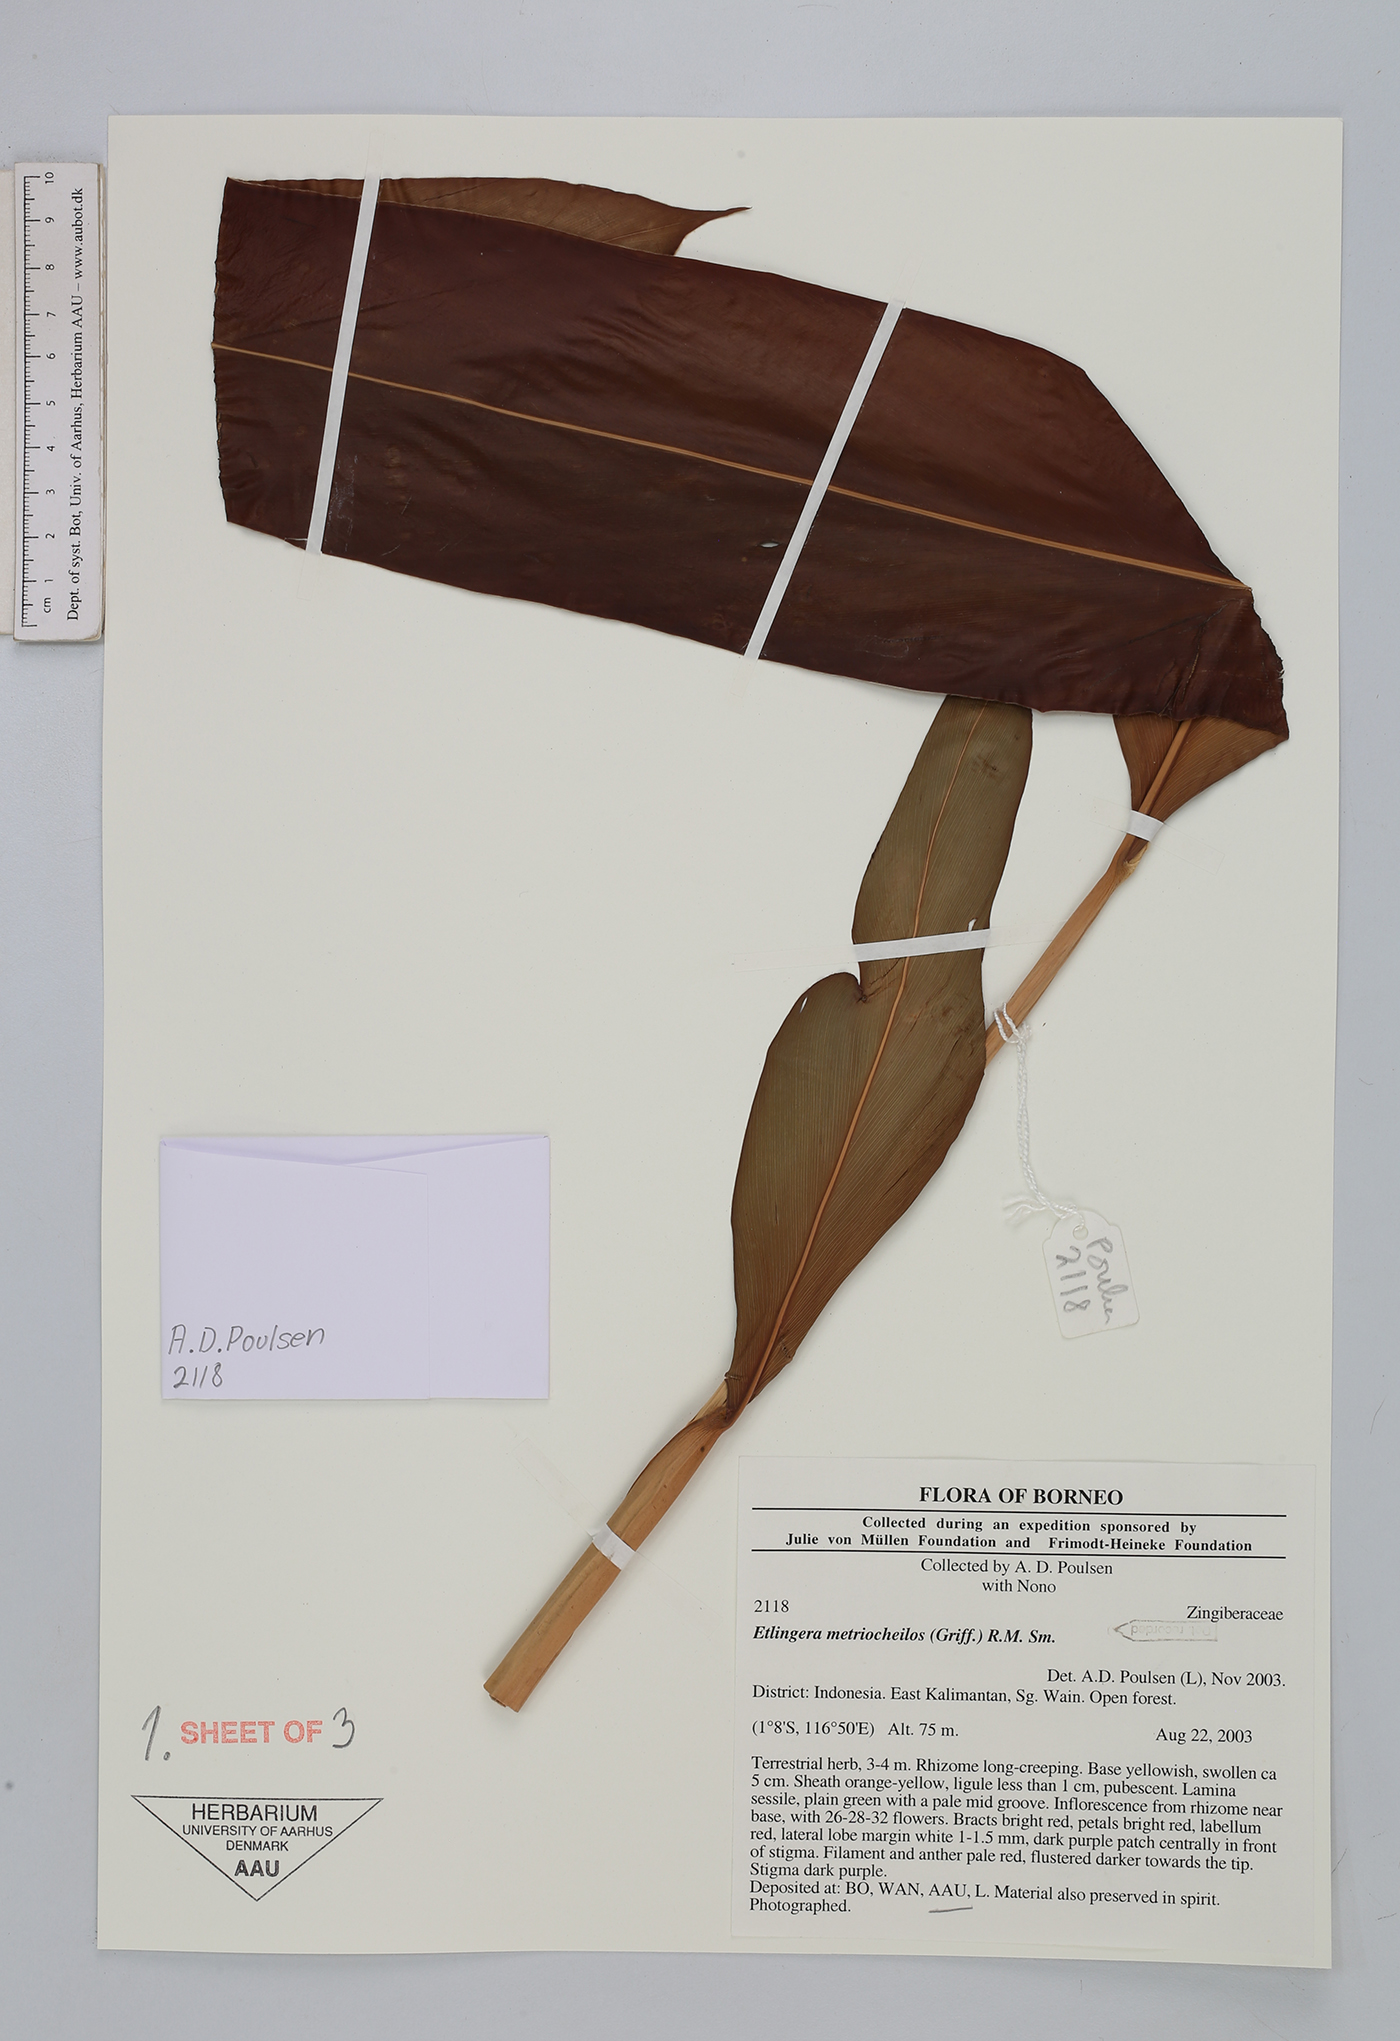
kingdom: Plantae
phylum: Tracheophyta
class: Liliopsida
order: Zingiberales
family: Zingiberaceae
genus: Etlingera
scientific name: Etlingera metriocheilos
